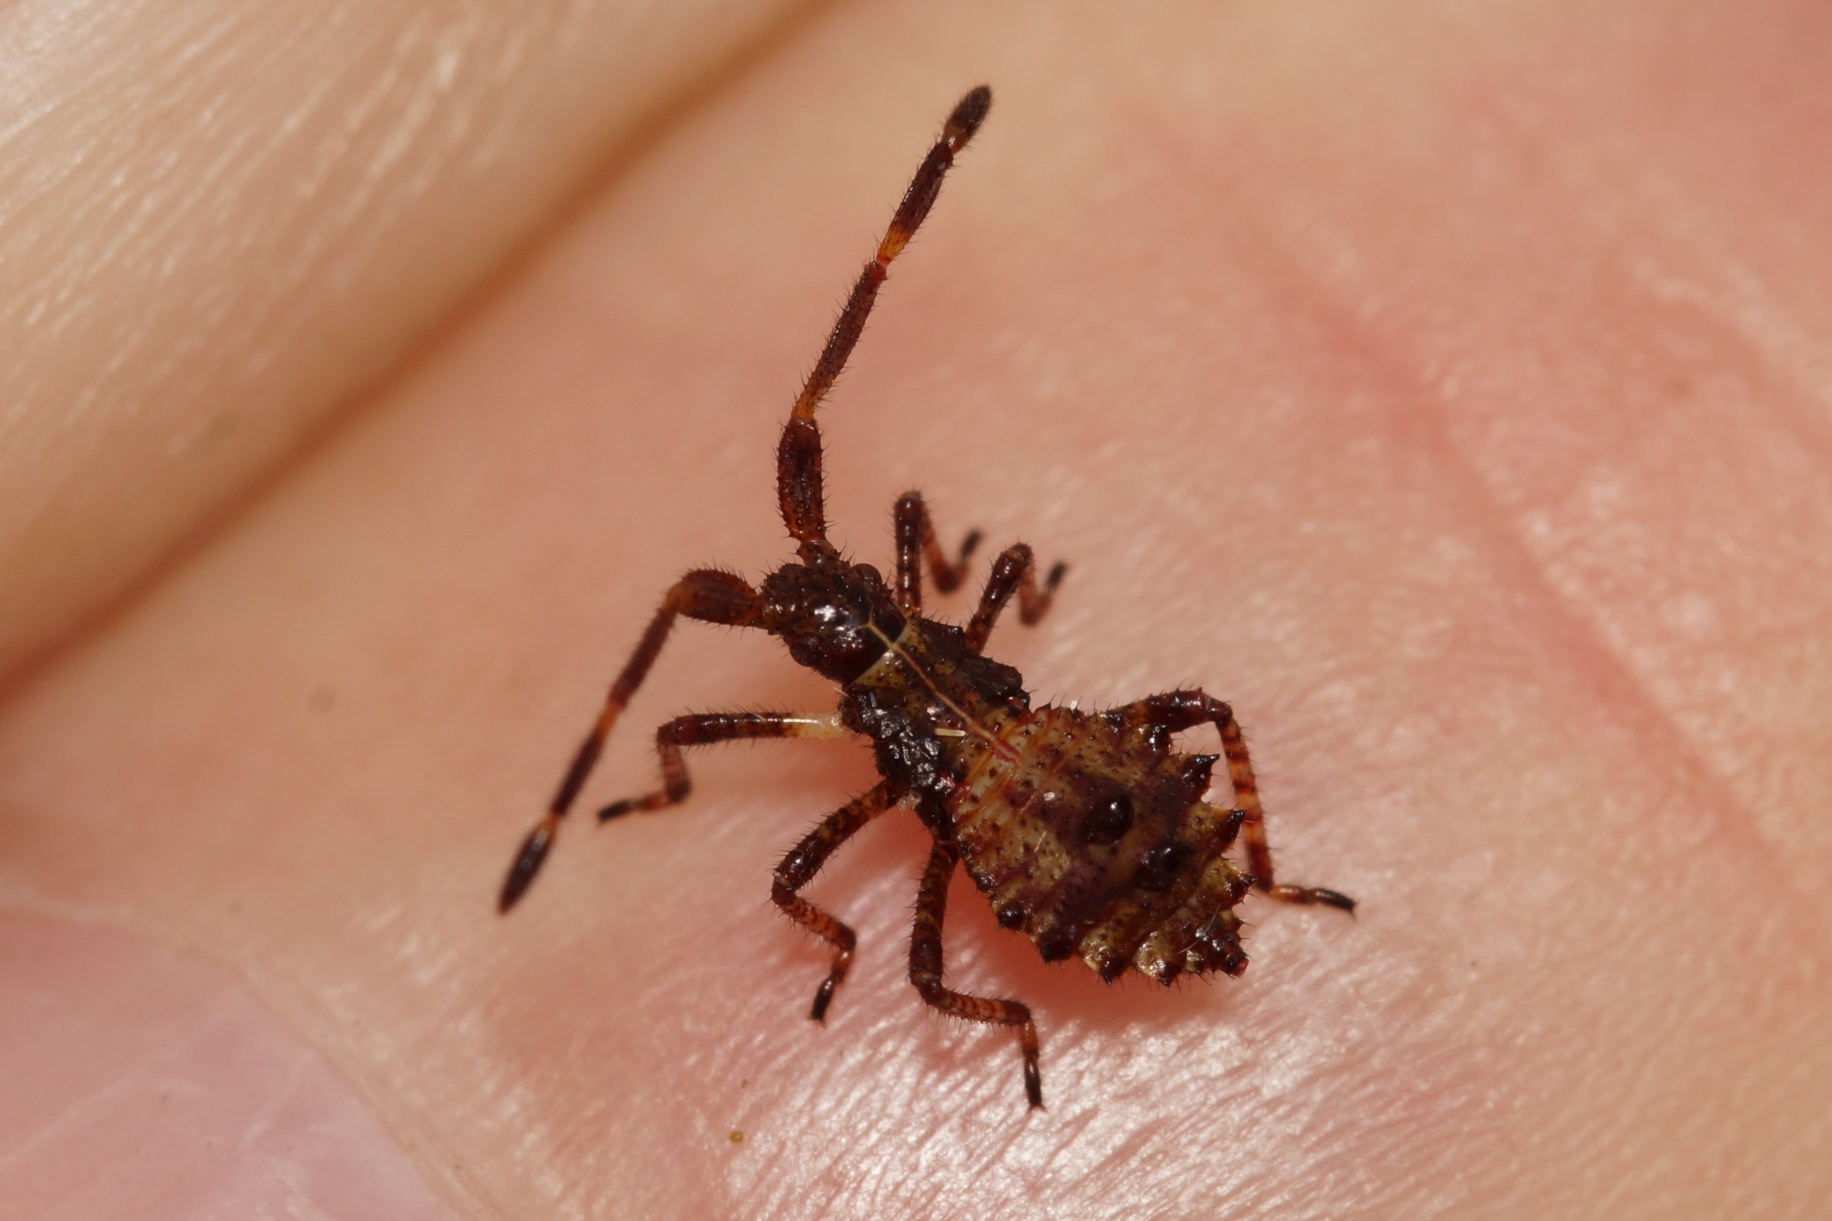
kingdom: Animalia
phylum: Arthropoda
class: Insecta
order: Hemiptera
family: Coreidae
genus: Coreus
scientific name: Coreus marginatus
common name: Skræppetæge
